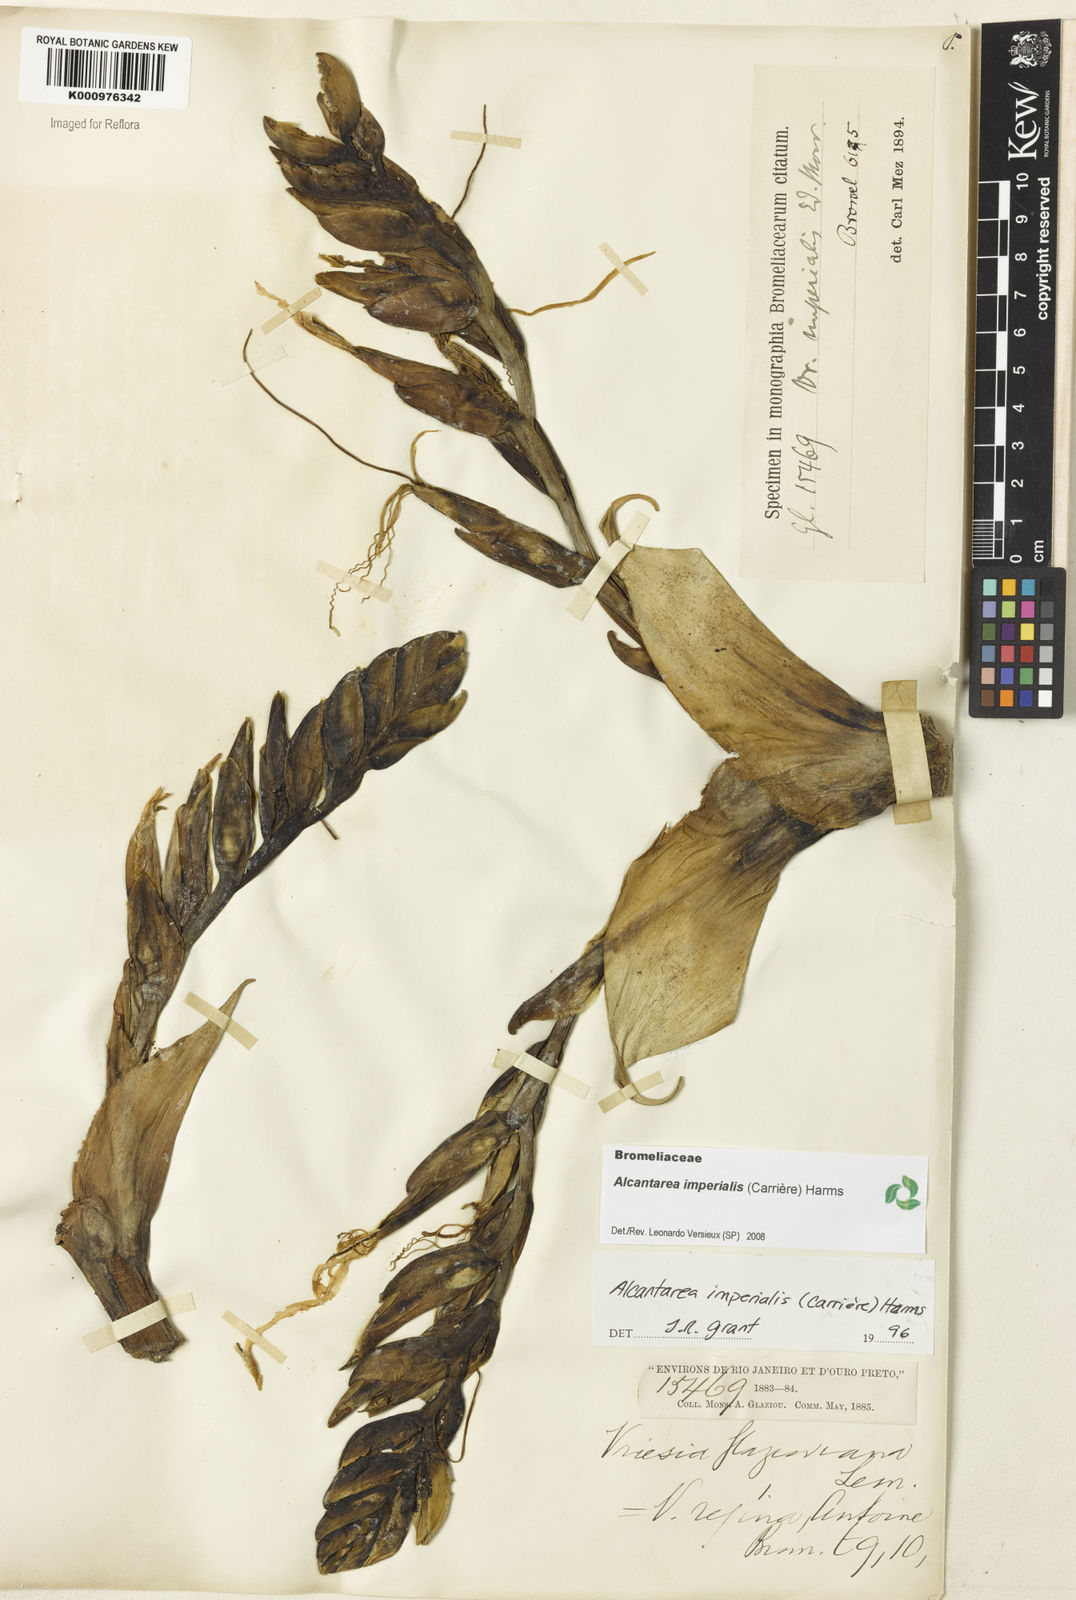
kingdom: Plantae
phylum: Tracheophyta
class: Liliopsida
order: Poales
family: Bromeliaceae
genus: Vriesea
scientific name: Vriesea
